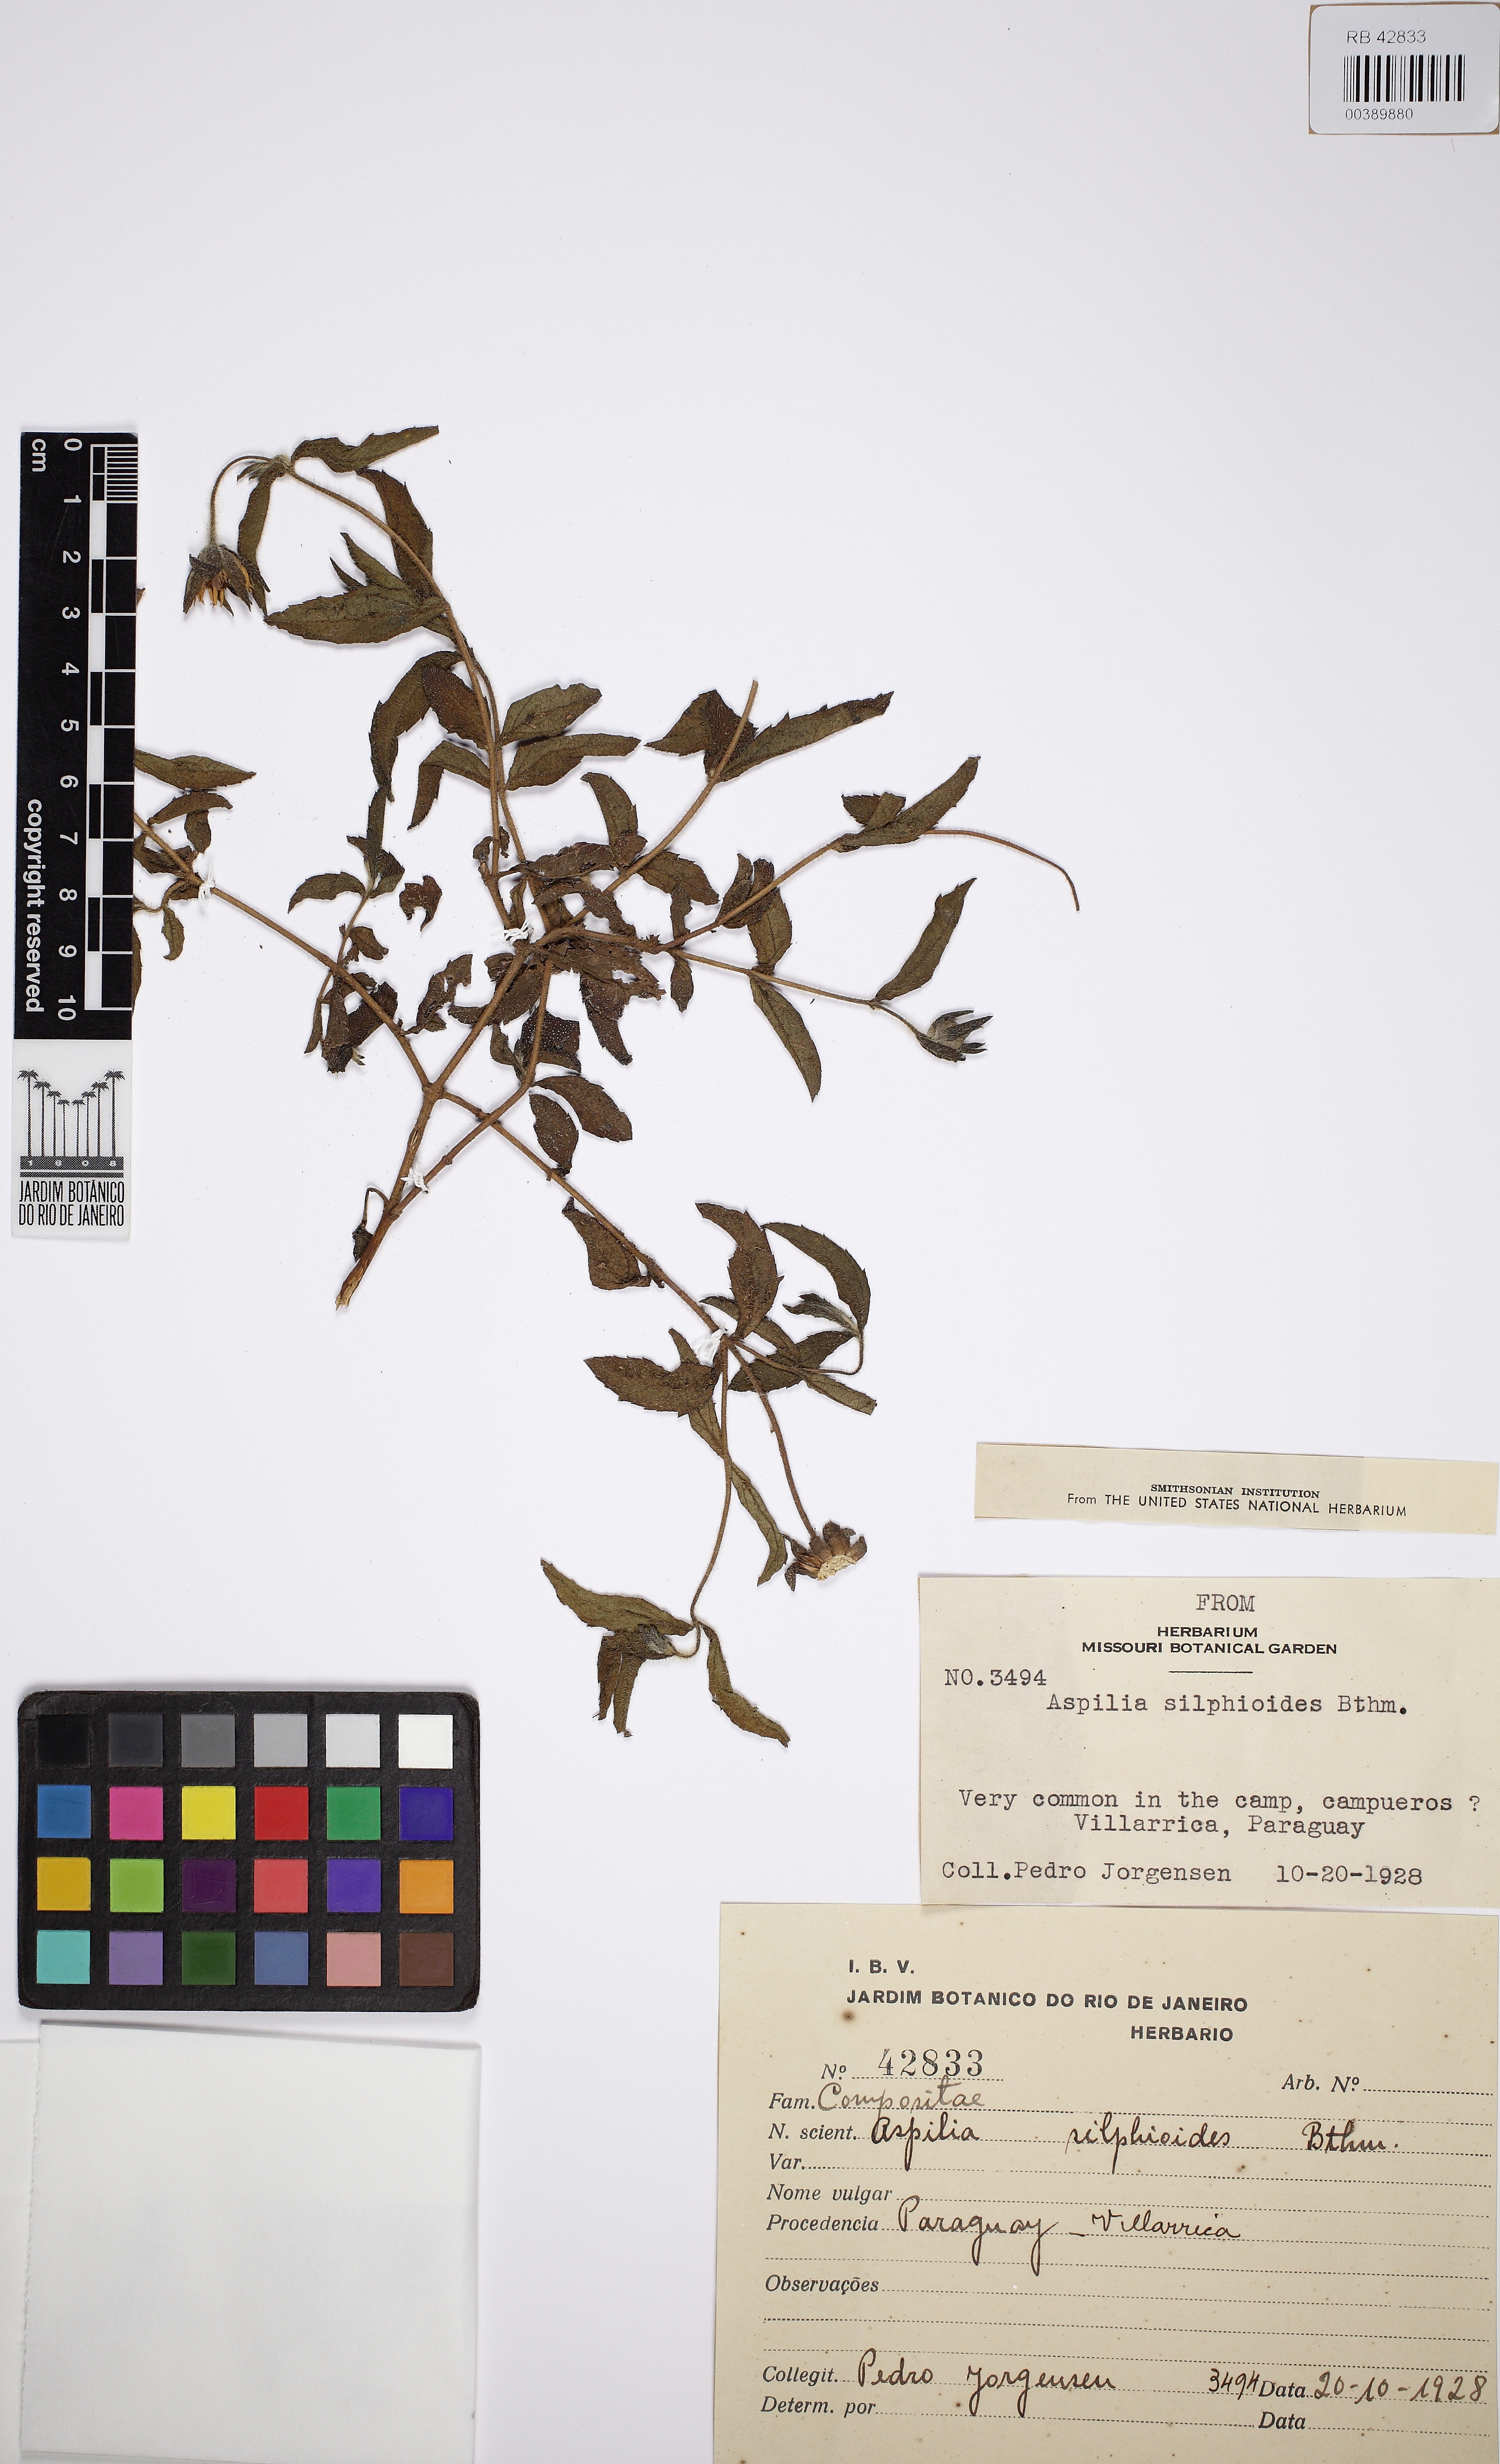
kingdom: Plantae
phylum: Tracheophyta
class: Magnoliopsida
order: Asterales
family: Asteraceae
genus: Wedelia
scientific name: Wedelia silphioides
